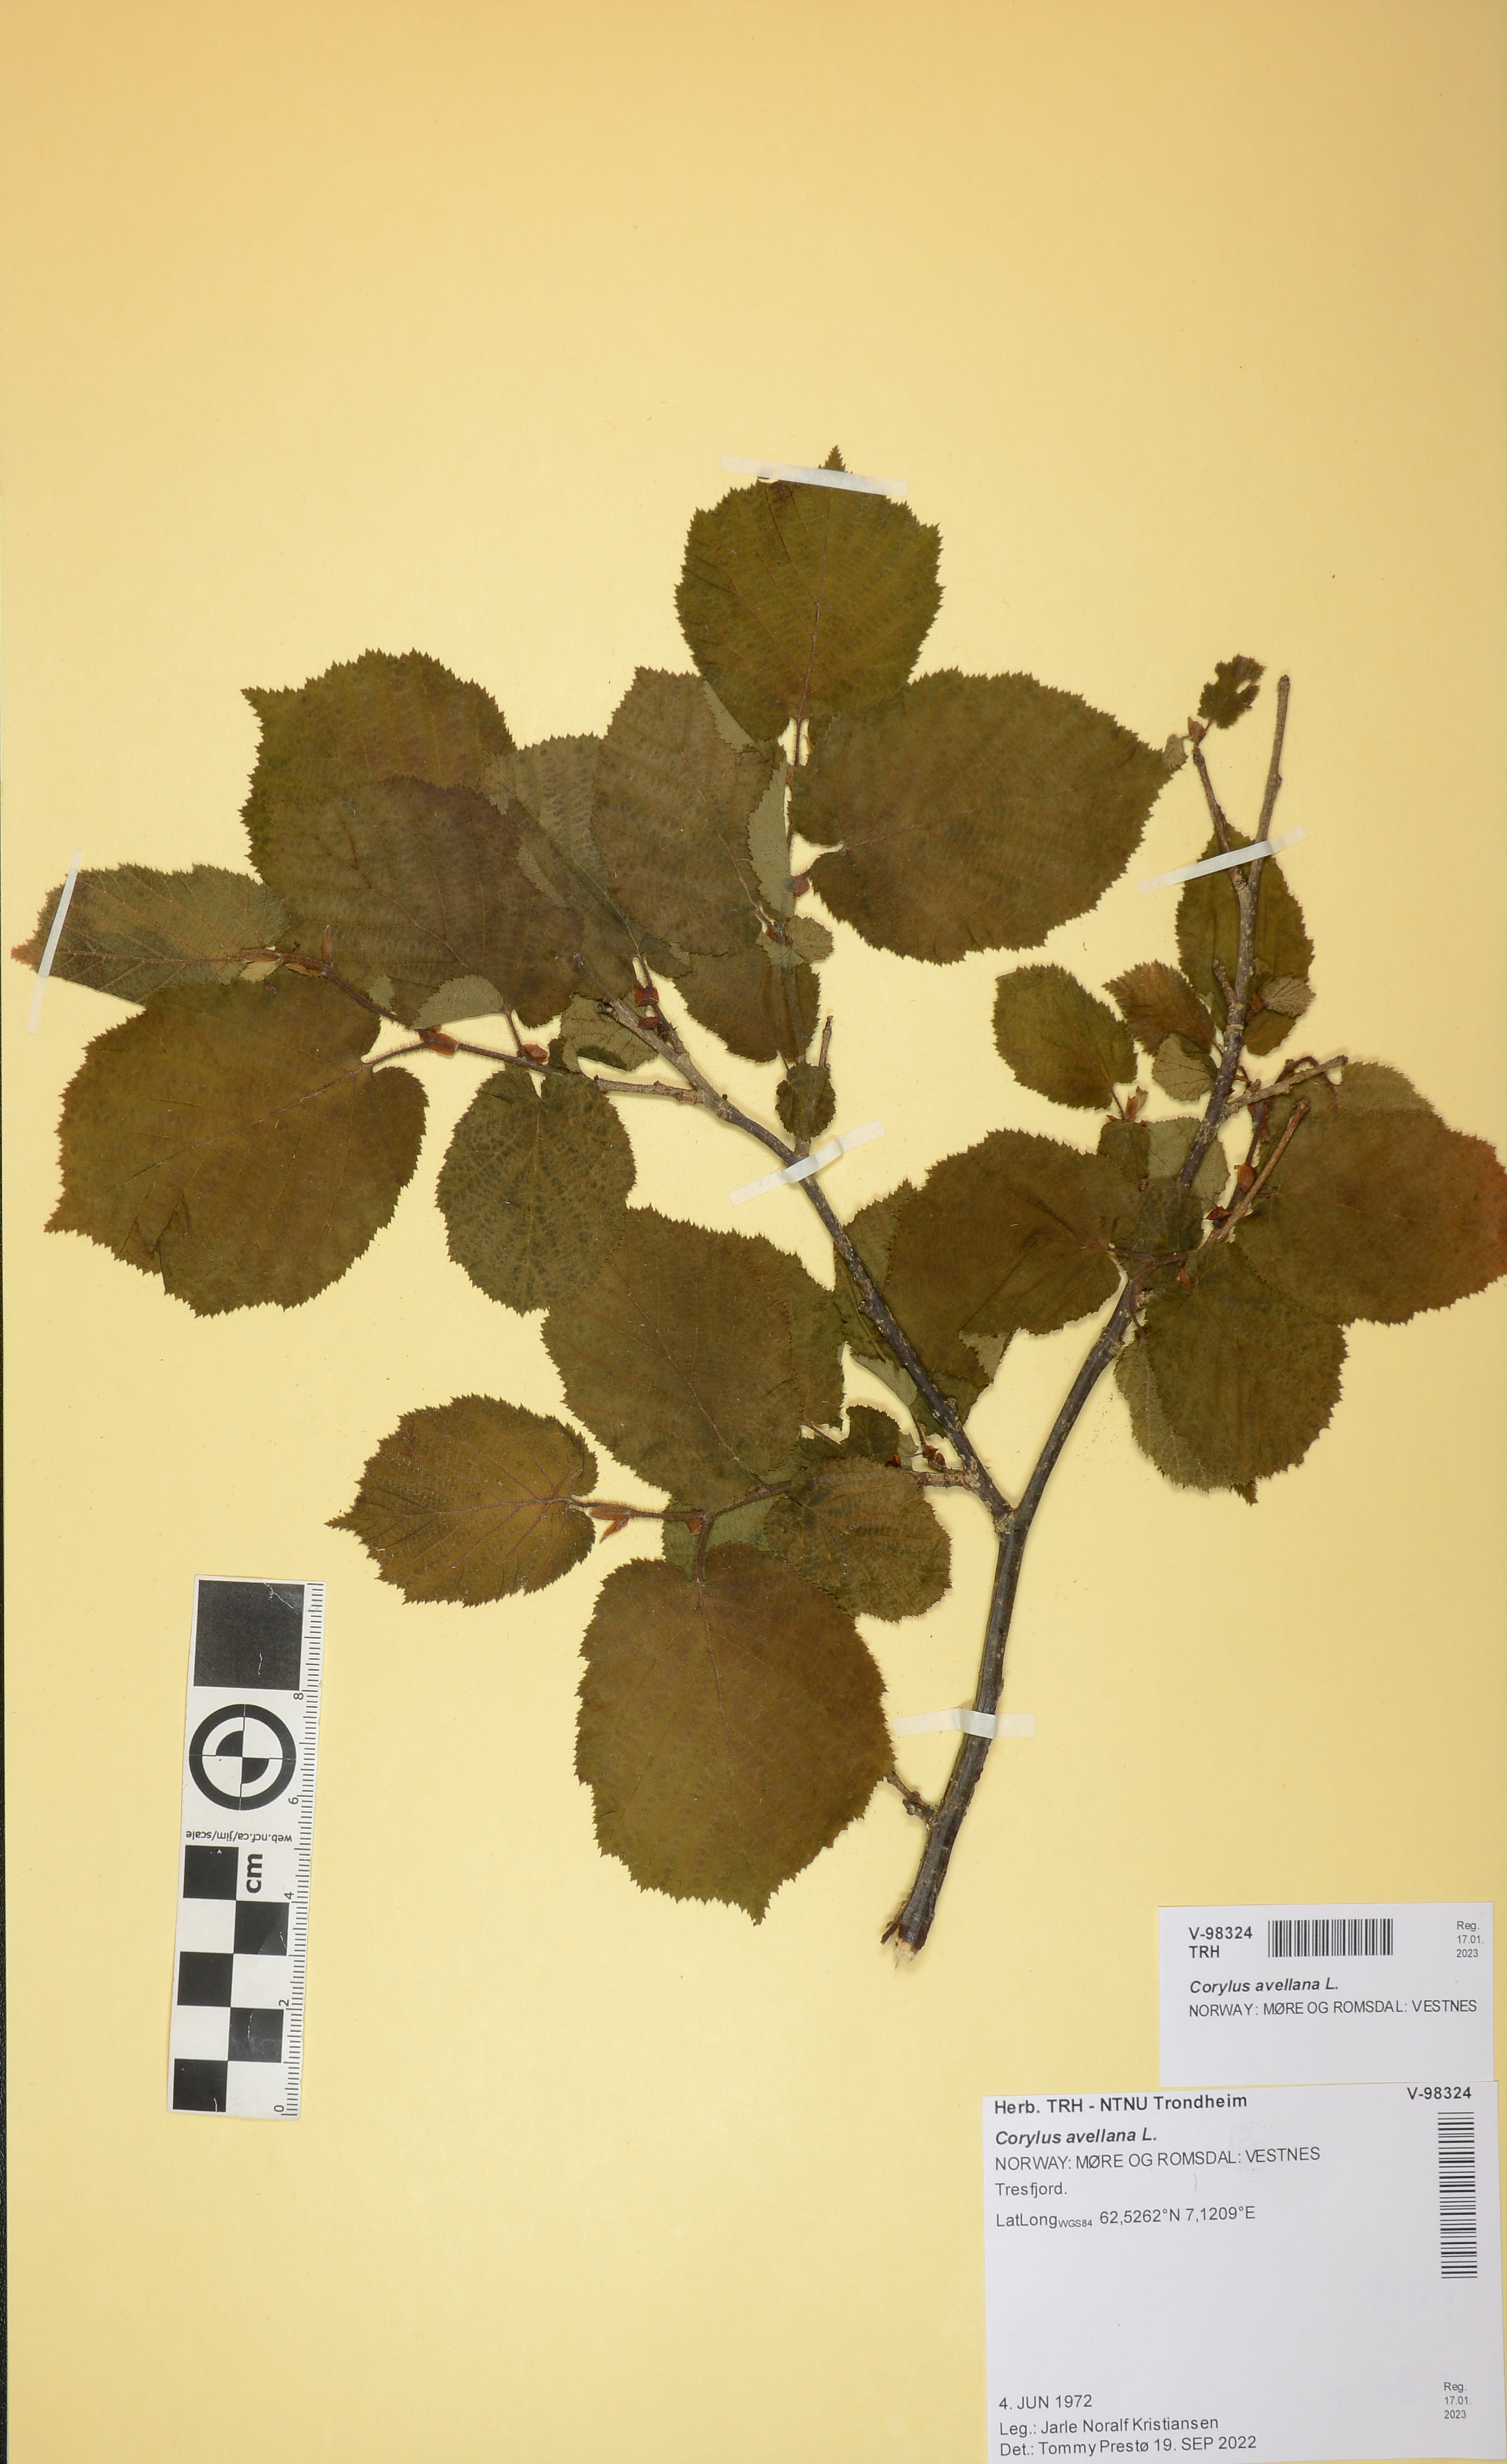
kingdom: Plantae
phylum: Tracheophyta
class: Magnoliopsida
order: Fagales
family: Betulaceae
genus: Corylus
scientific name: Corylus avellana
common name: European hazel
